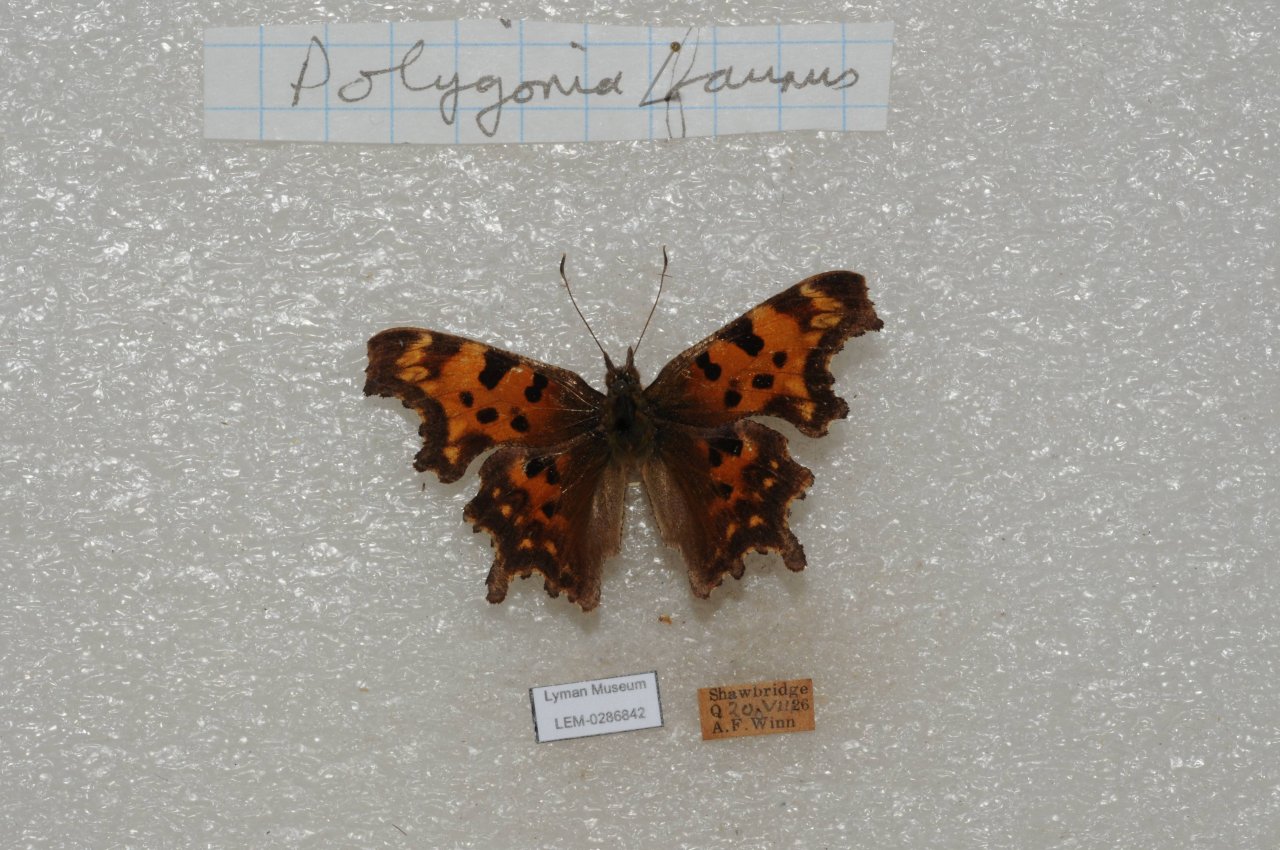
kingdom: Animalia
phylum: Arthropoda
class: Insecta
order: Lepidoptera
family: Nymphalidae
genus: Polygonia
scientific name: Polygonia faunus
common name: Green Comma
